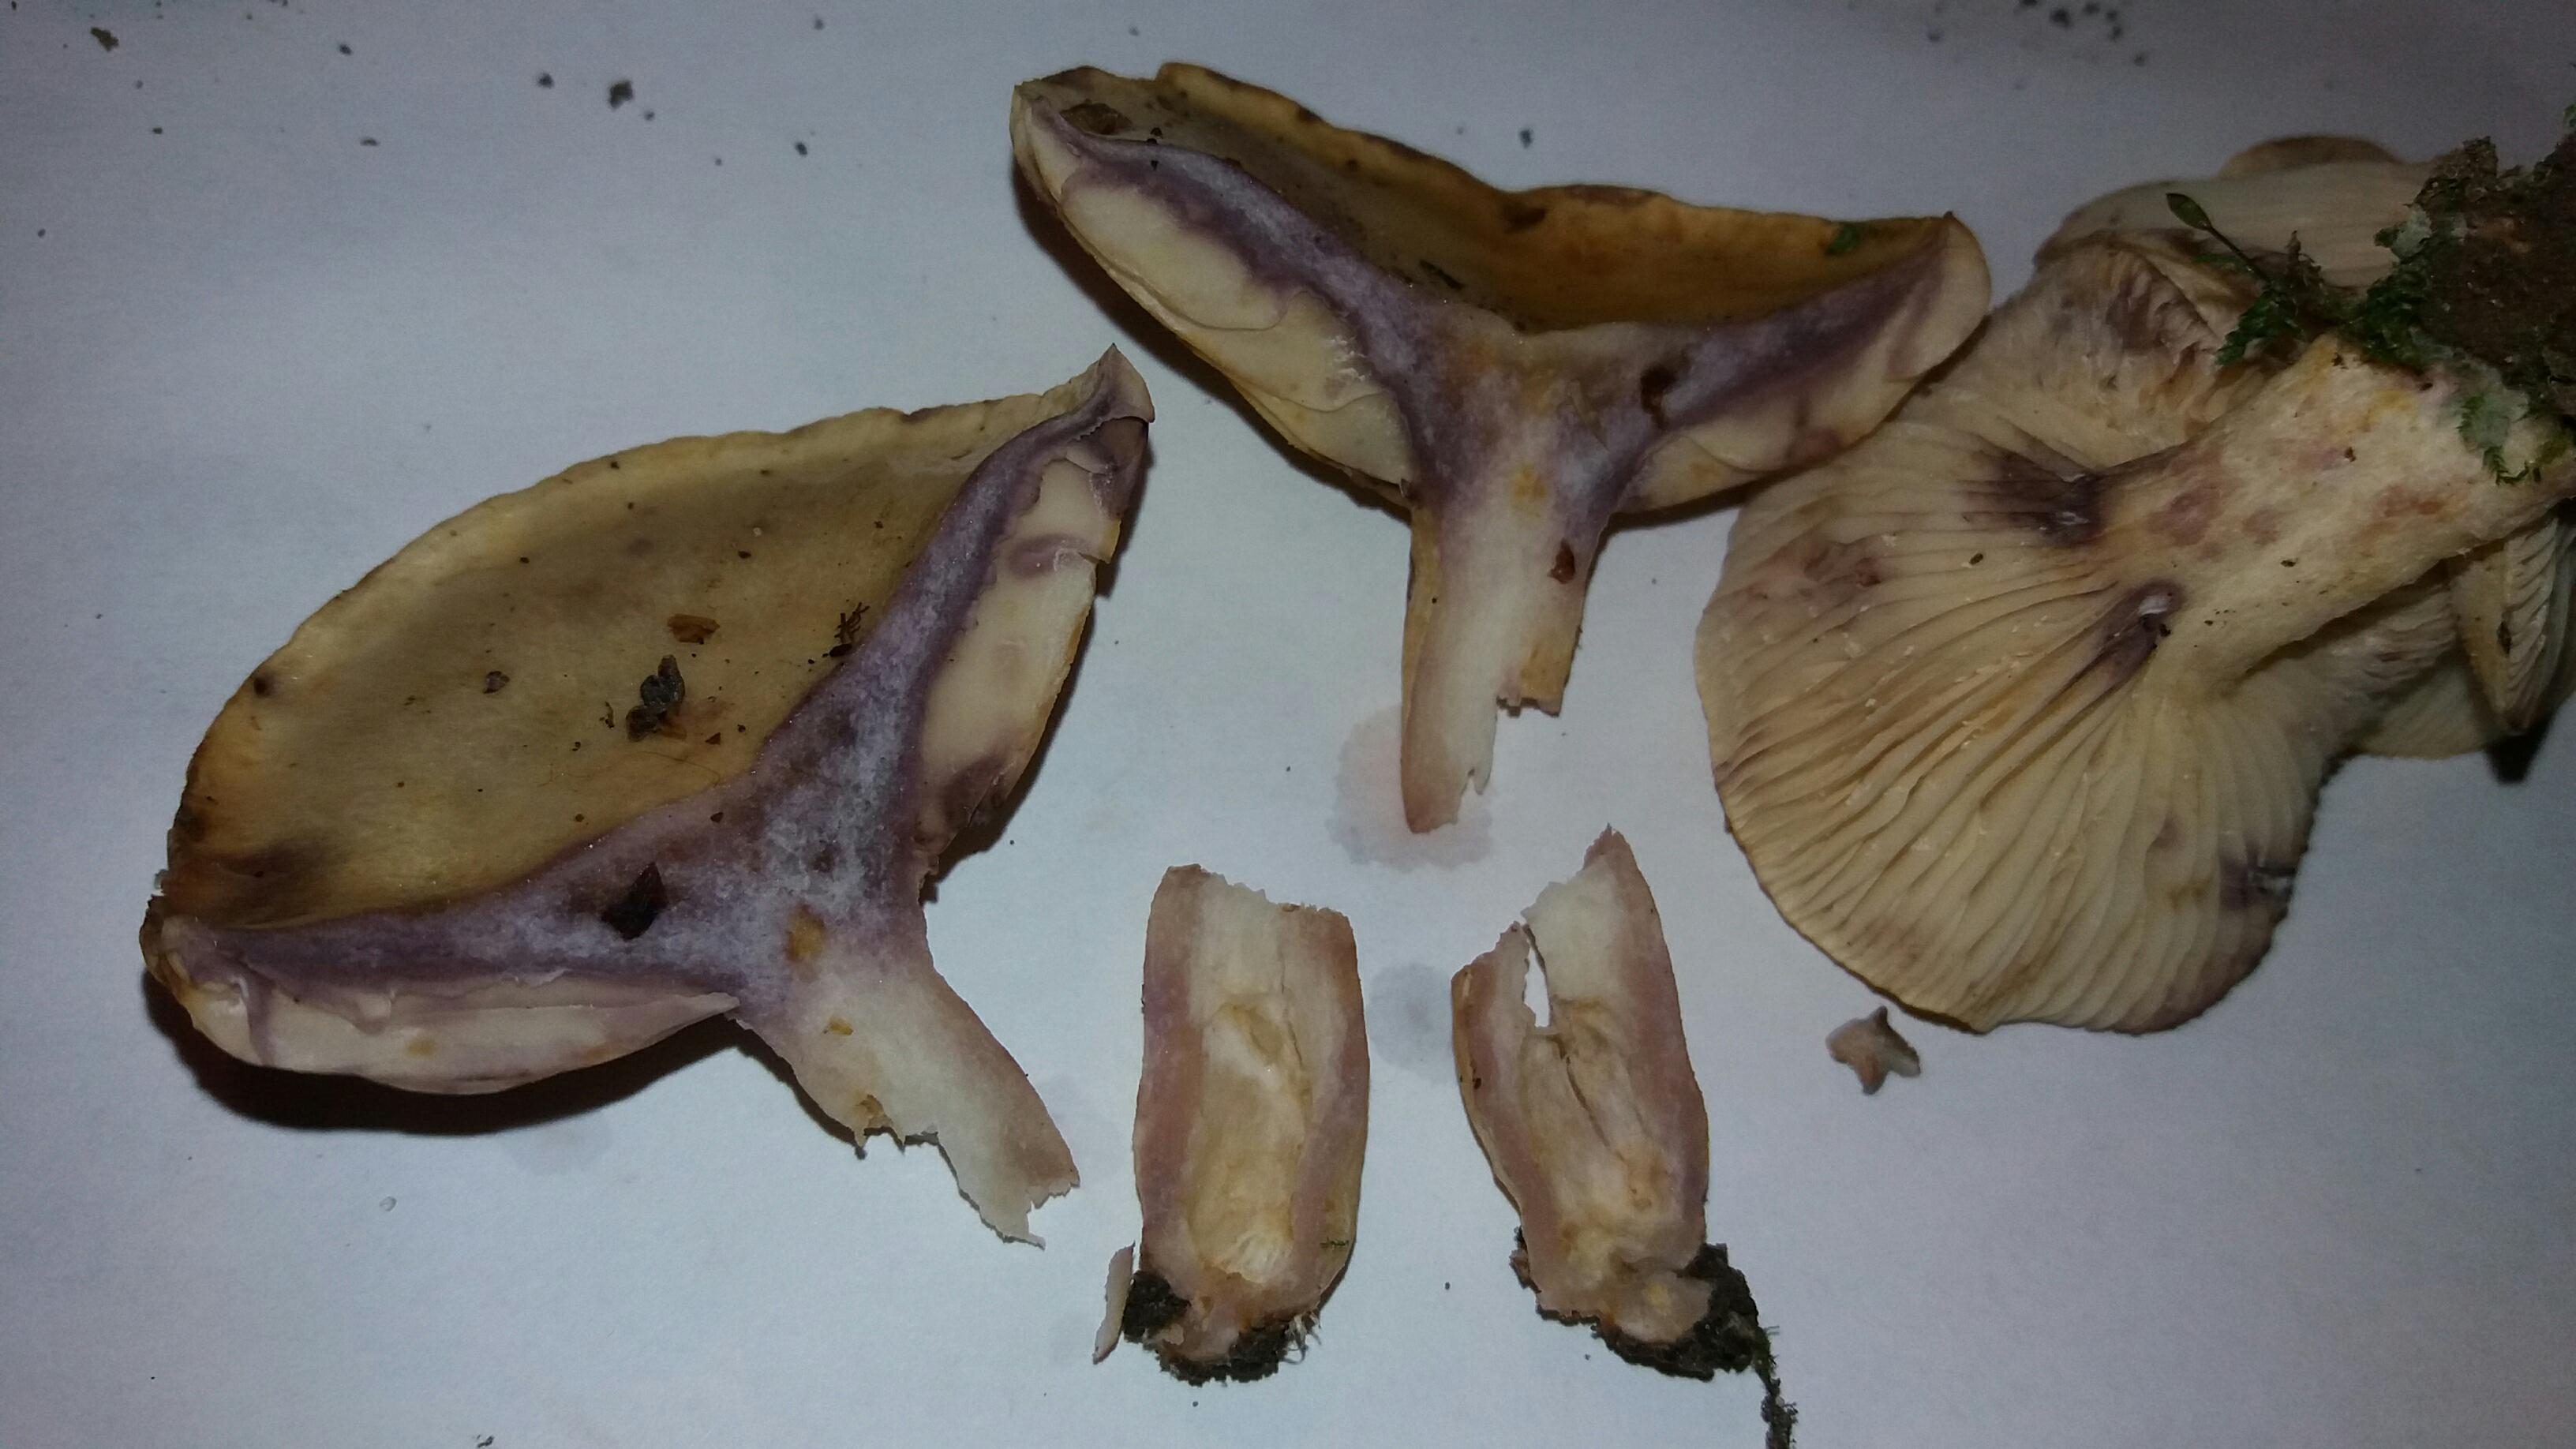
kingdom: Fungi
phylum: Basidiomycota
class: Agaricomycetes
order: Russulales
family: Russulaceae
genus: Lactarius
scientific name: Lactarius aspideus
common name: pile-mælkehat
